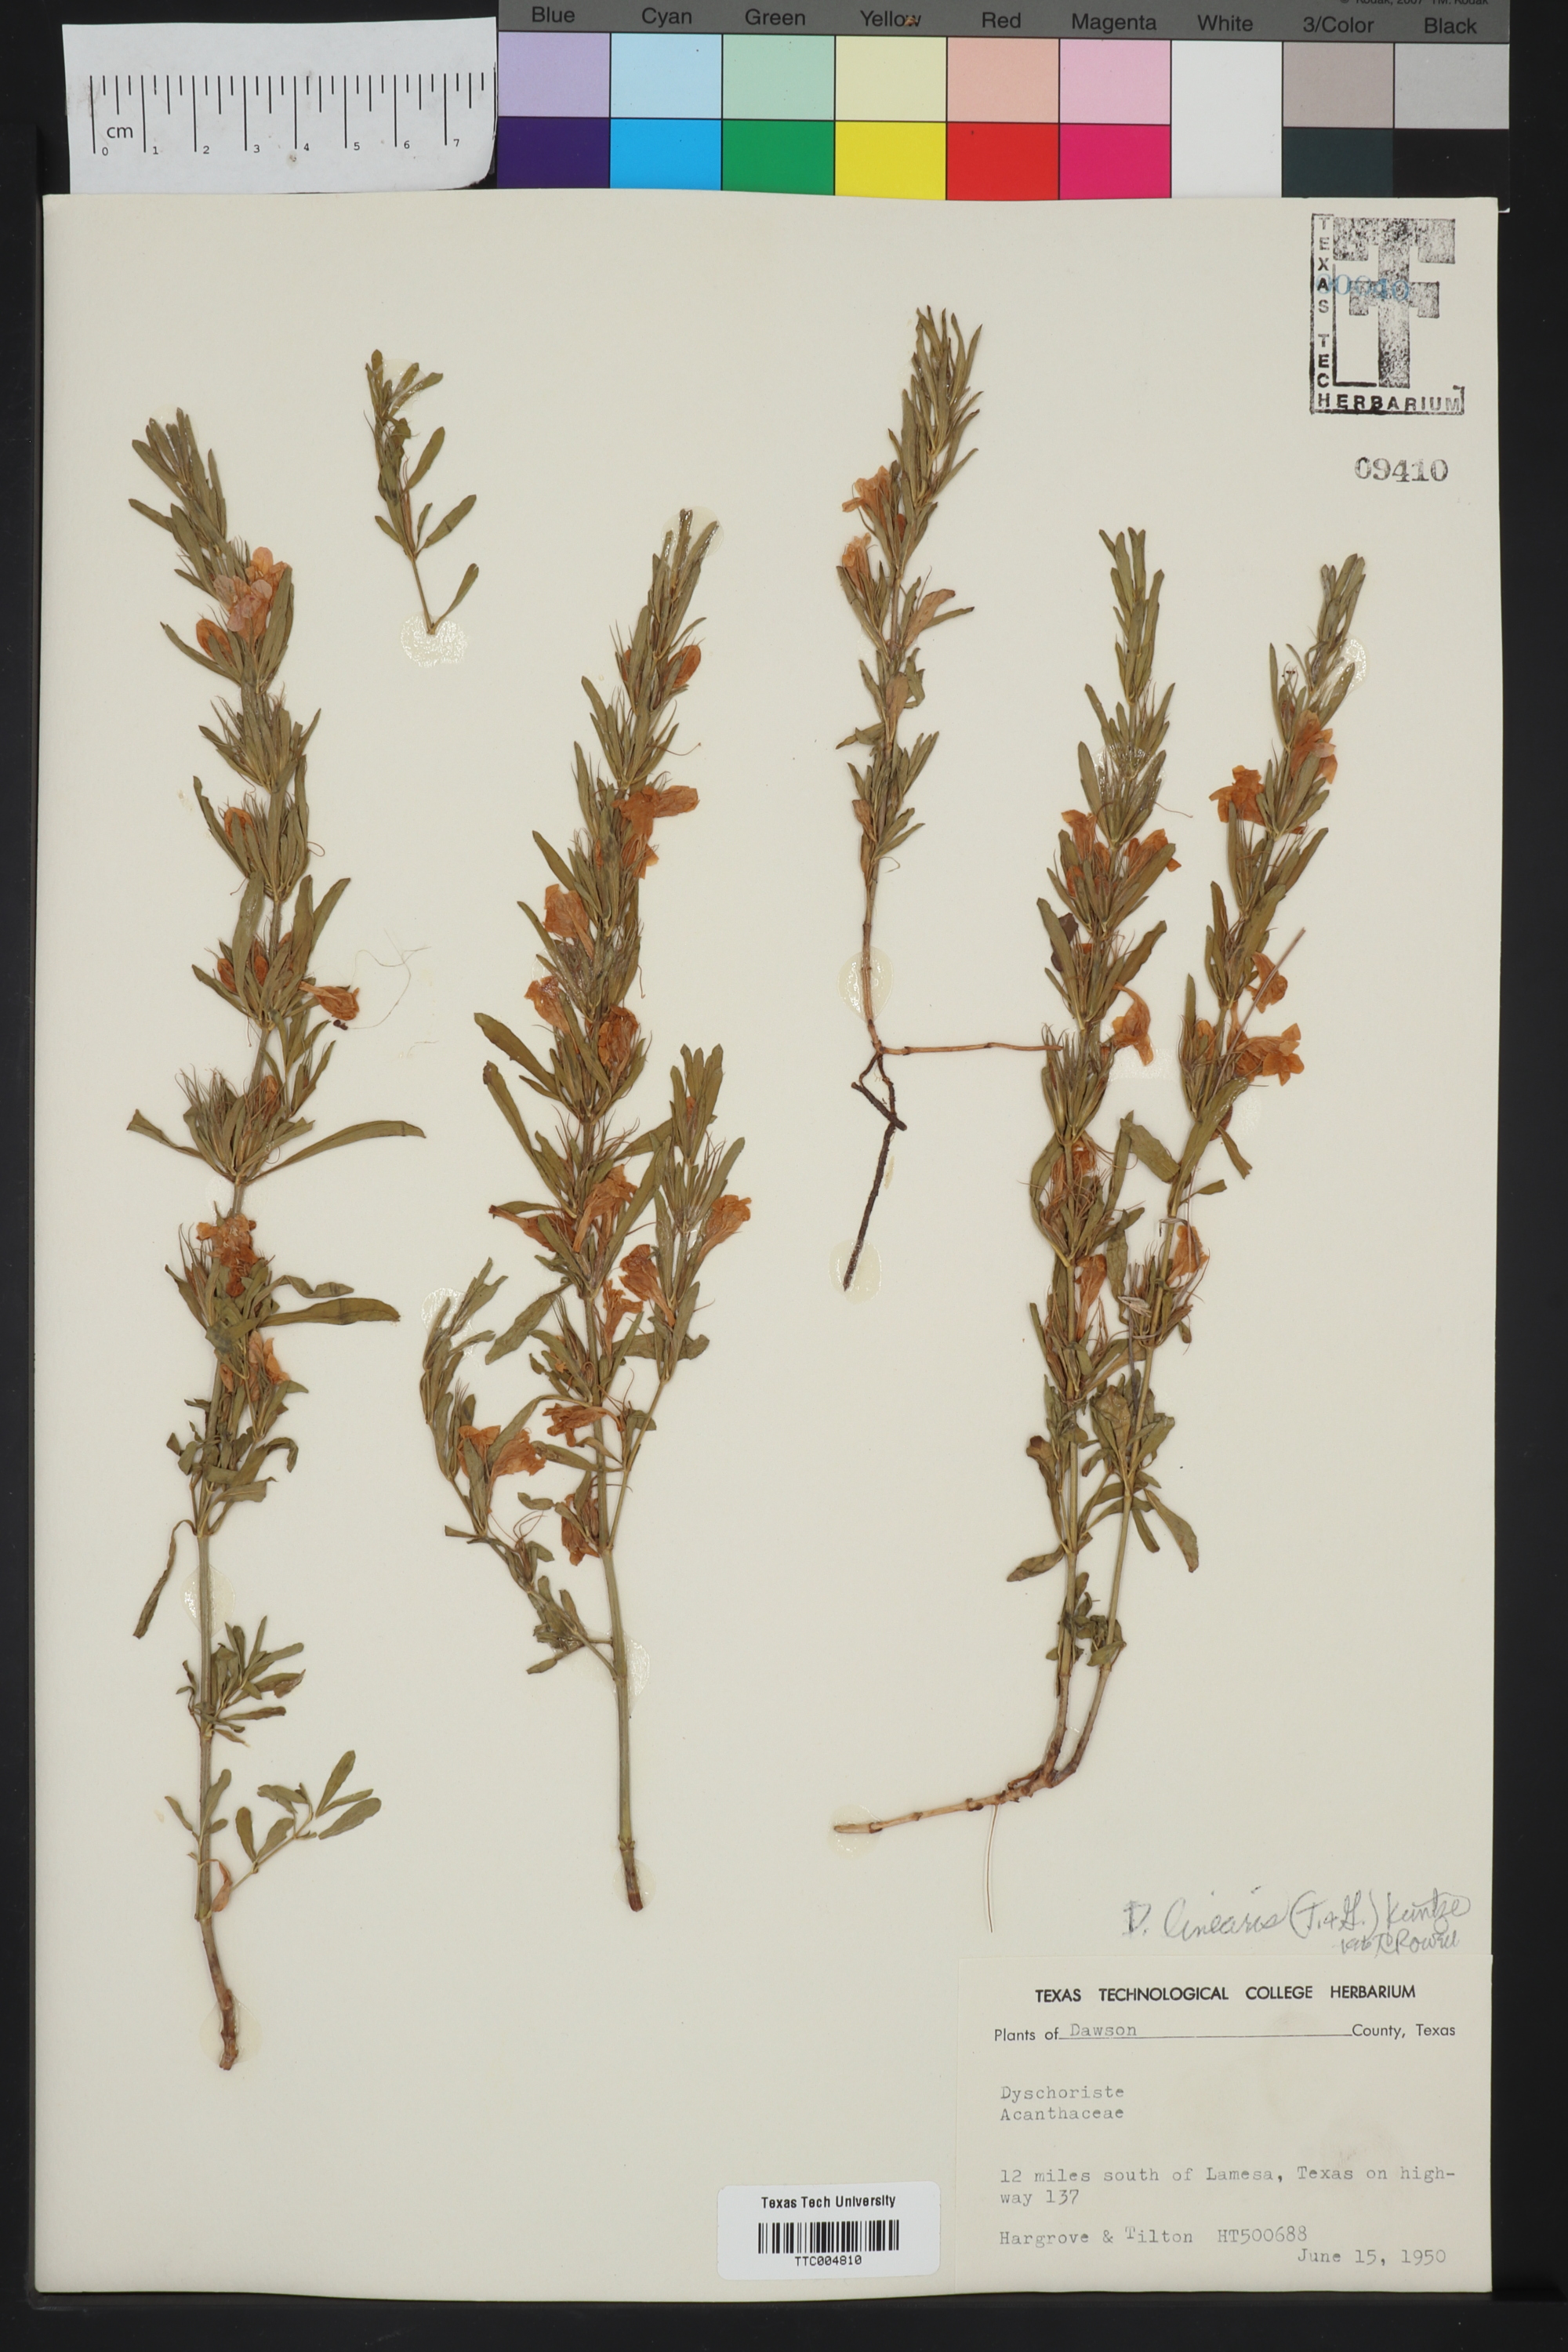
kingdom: Plantae
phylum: Tracheophyta
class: Magnoliopsida
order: Lamiales
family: Acanthaceae
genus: Dyschoriste
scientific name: Dyschoriste linearis
